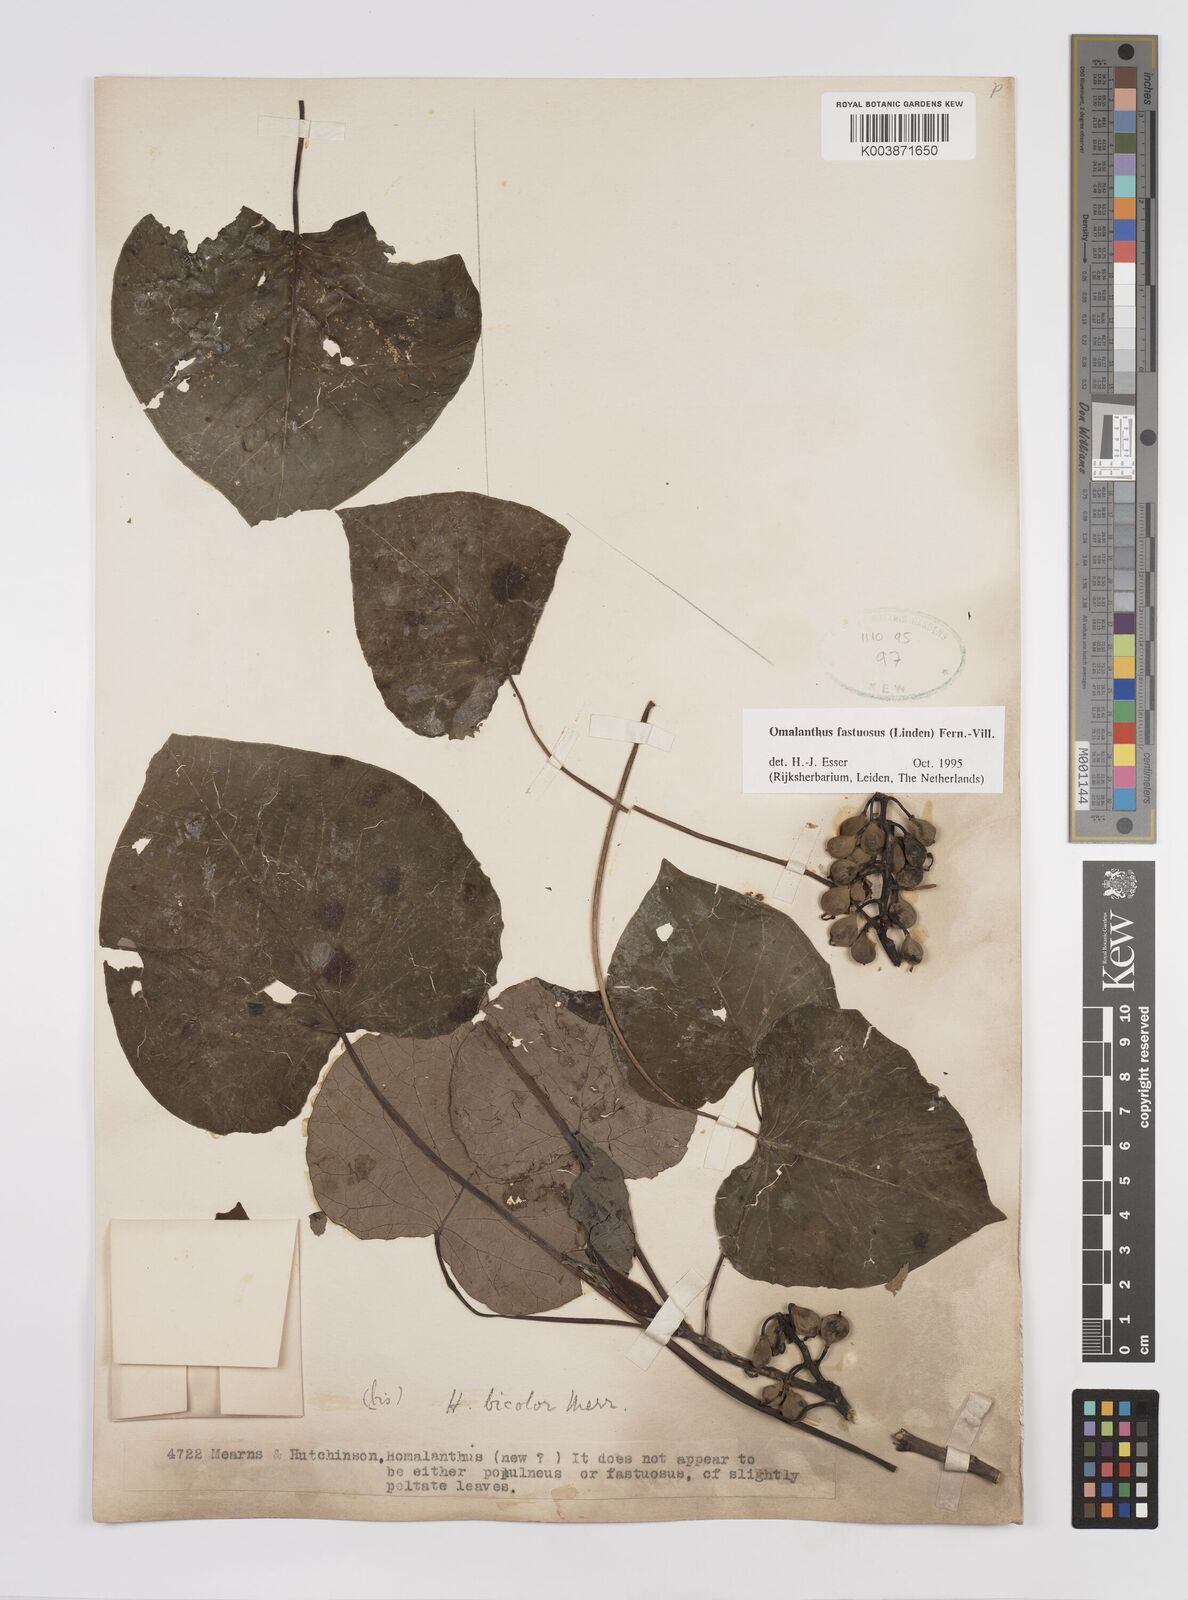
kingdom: Plantae
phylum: Tracheophyta
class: Magnoliopsida
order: Malpighiales
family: Euphorbiaceae
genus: Homalanthus
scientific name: Homalanthus fastuosus
